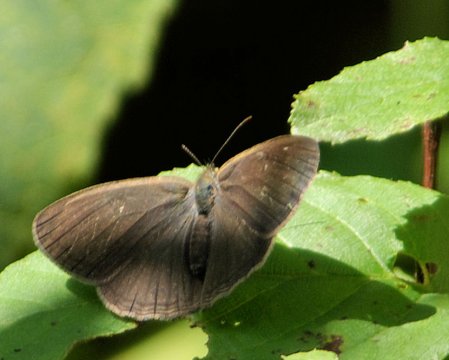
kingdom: Animalia
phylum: Arthropoda
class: Insecta
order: Lepidoptera
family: Nymphalidae
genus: Hermeuptychia
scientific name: Hermeuptychia hermes
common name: Carolina Satyr
